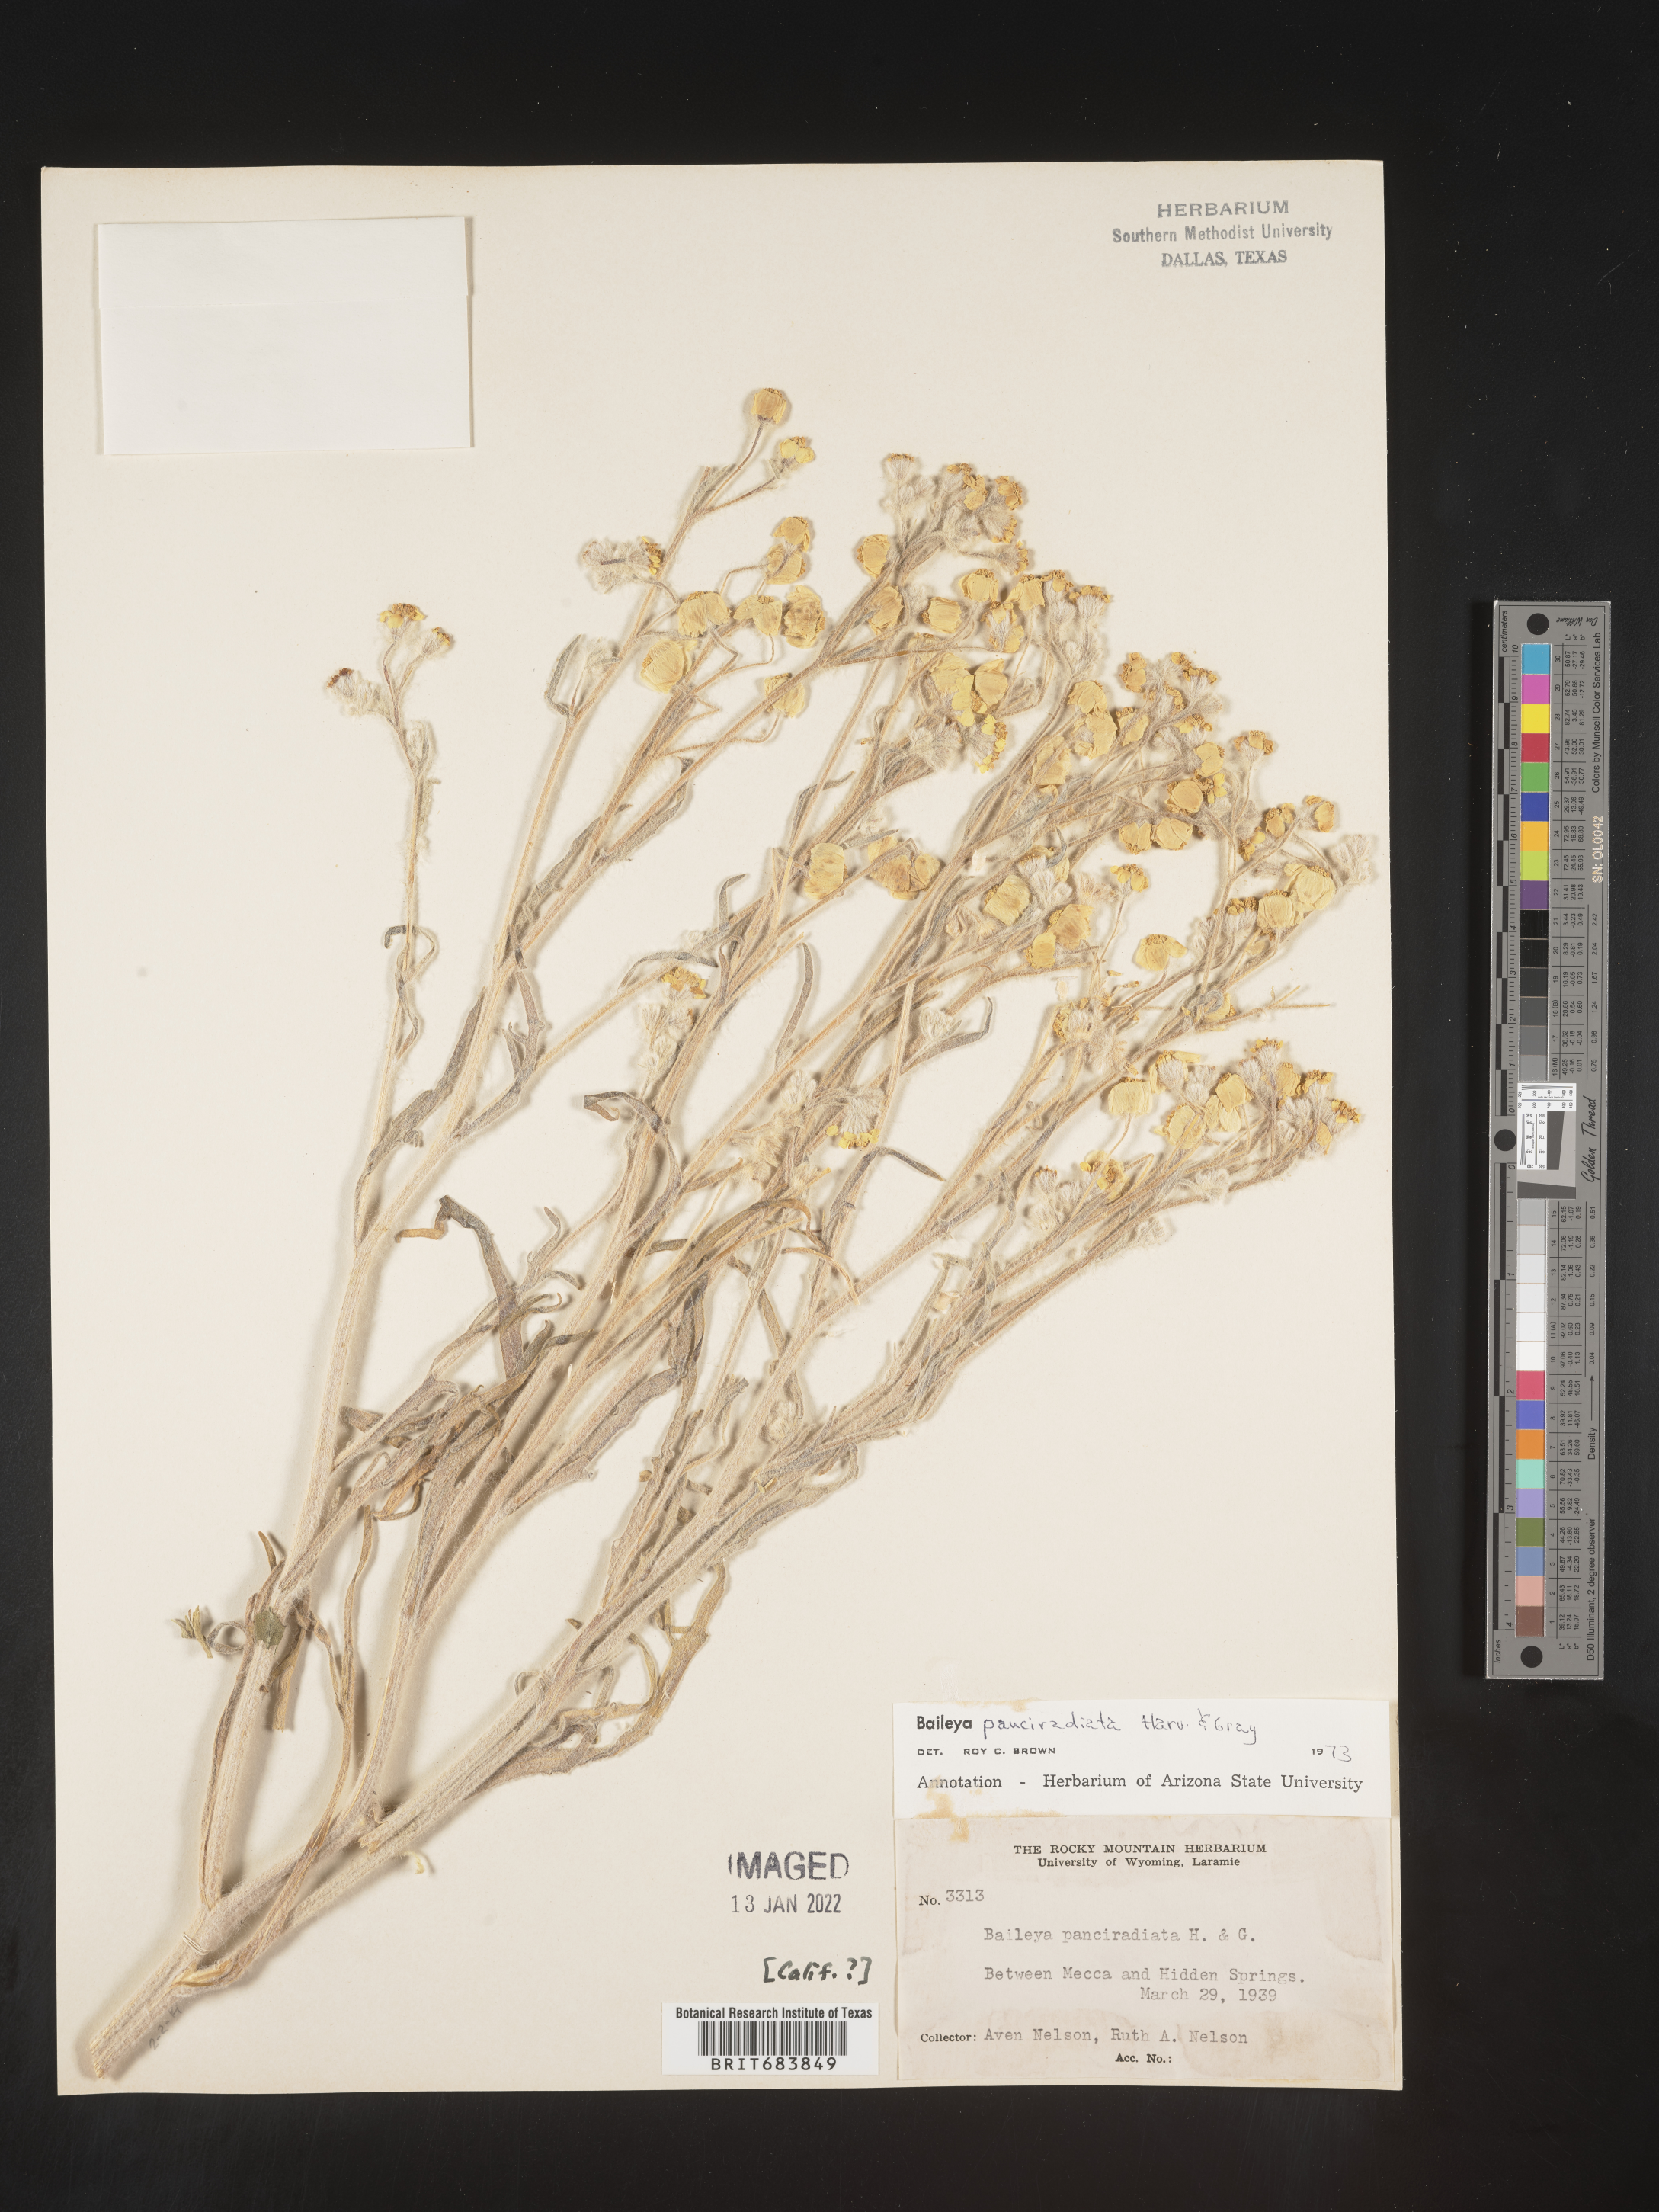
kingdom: Plantae
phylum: Tracheophyta
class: Magnoliopsida
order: Asterales
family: Asteraceae
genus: Baileya
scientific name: Baileya pauciradiata
